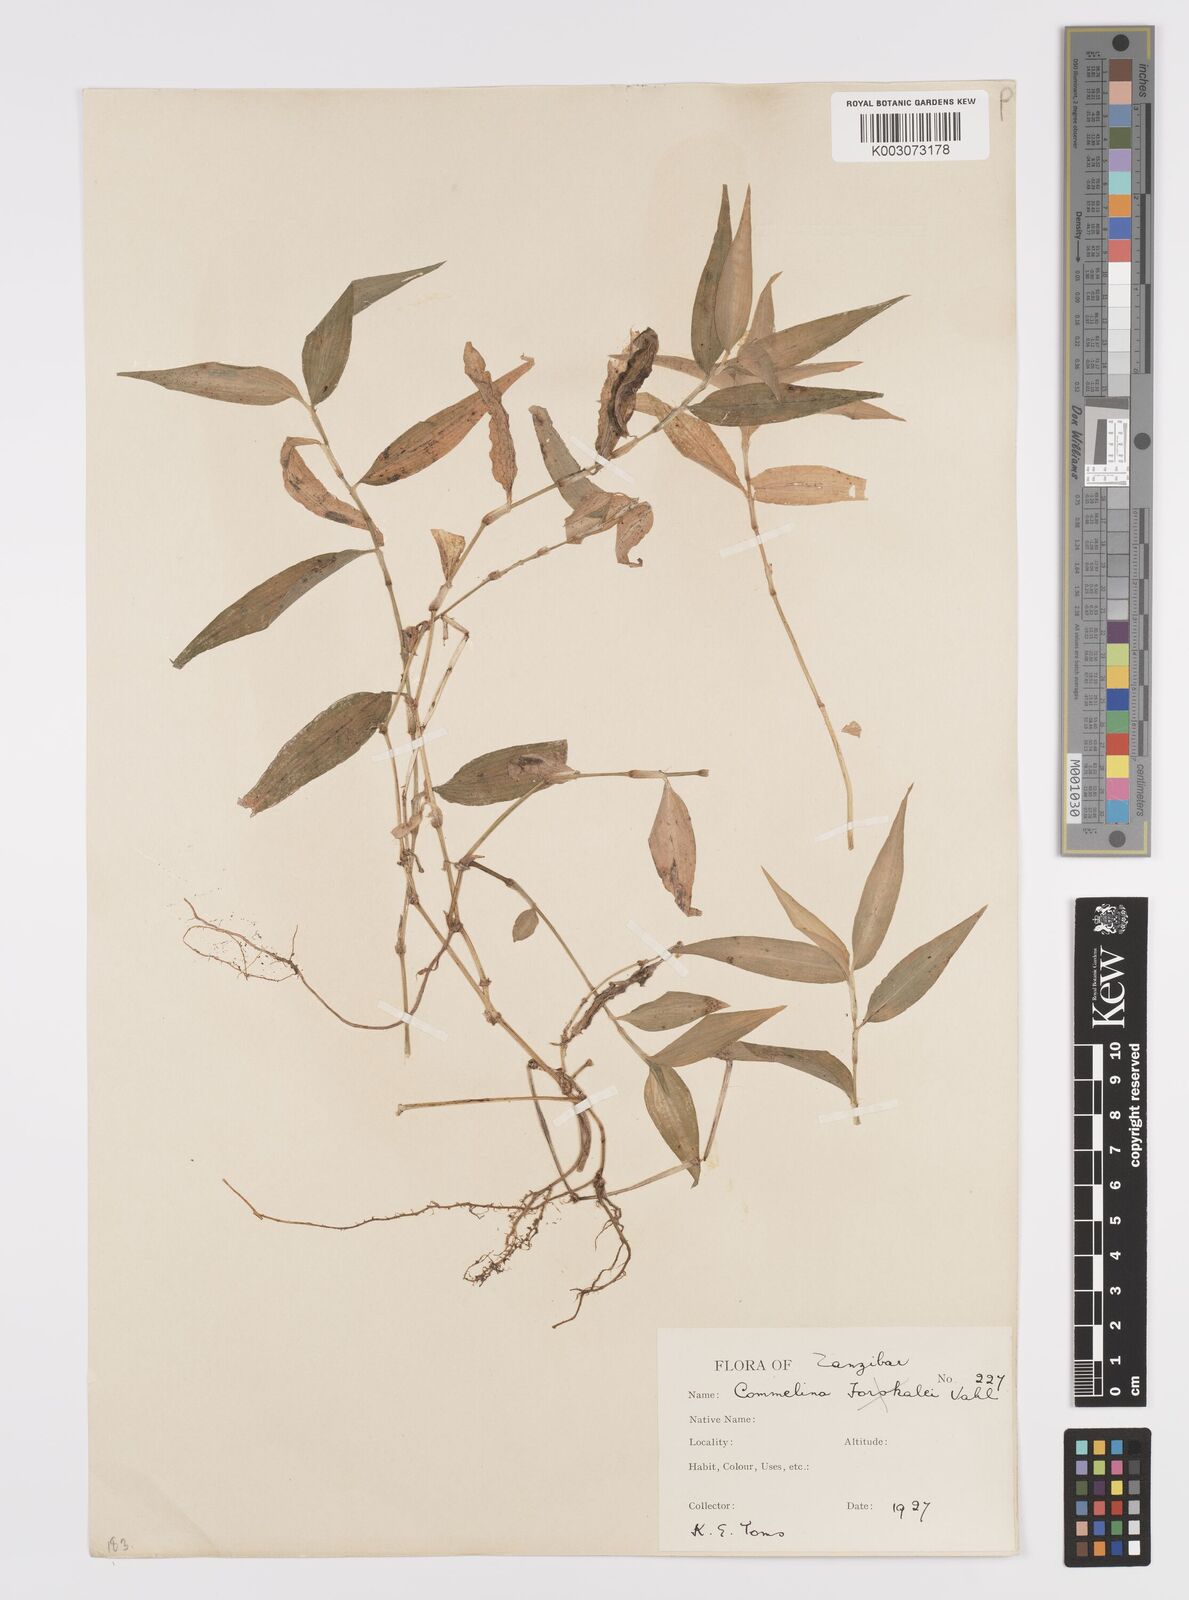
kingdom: Plantae
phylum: Tracheophyta
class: Liliopsida
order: Commelinales
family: Commelinaceae
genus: Commelina
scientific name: Commelina africana
